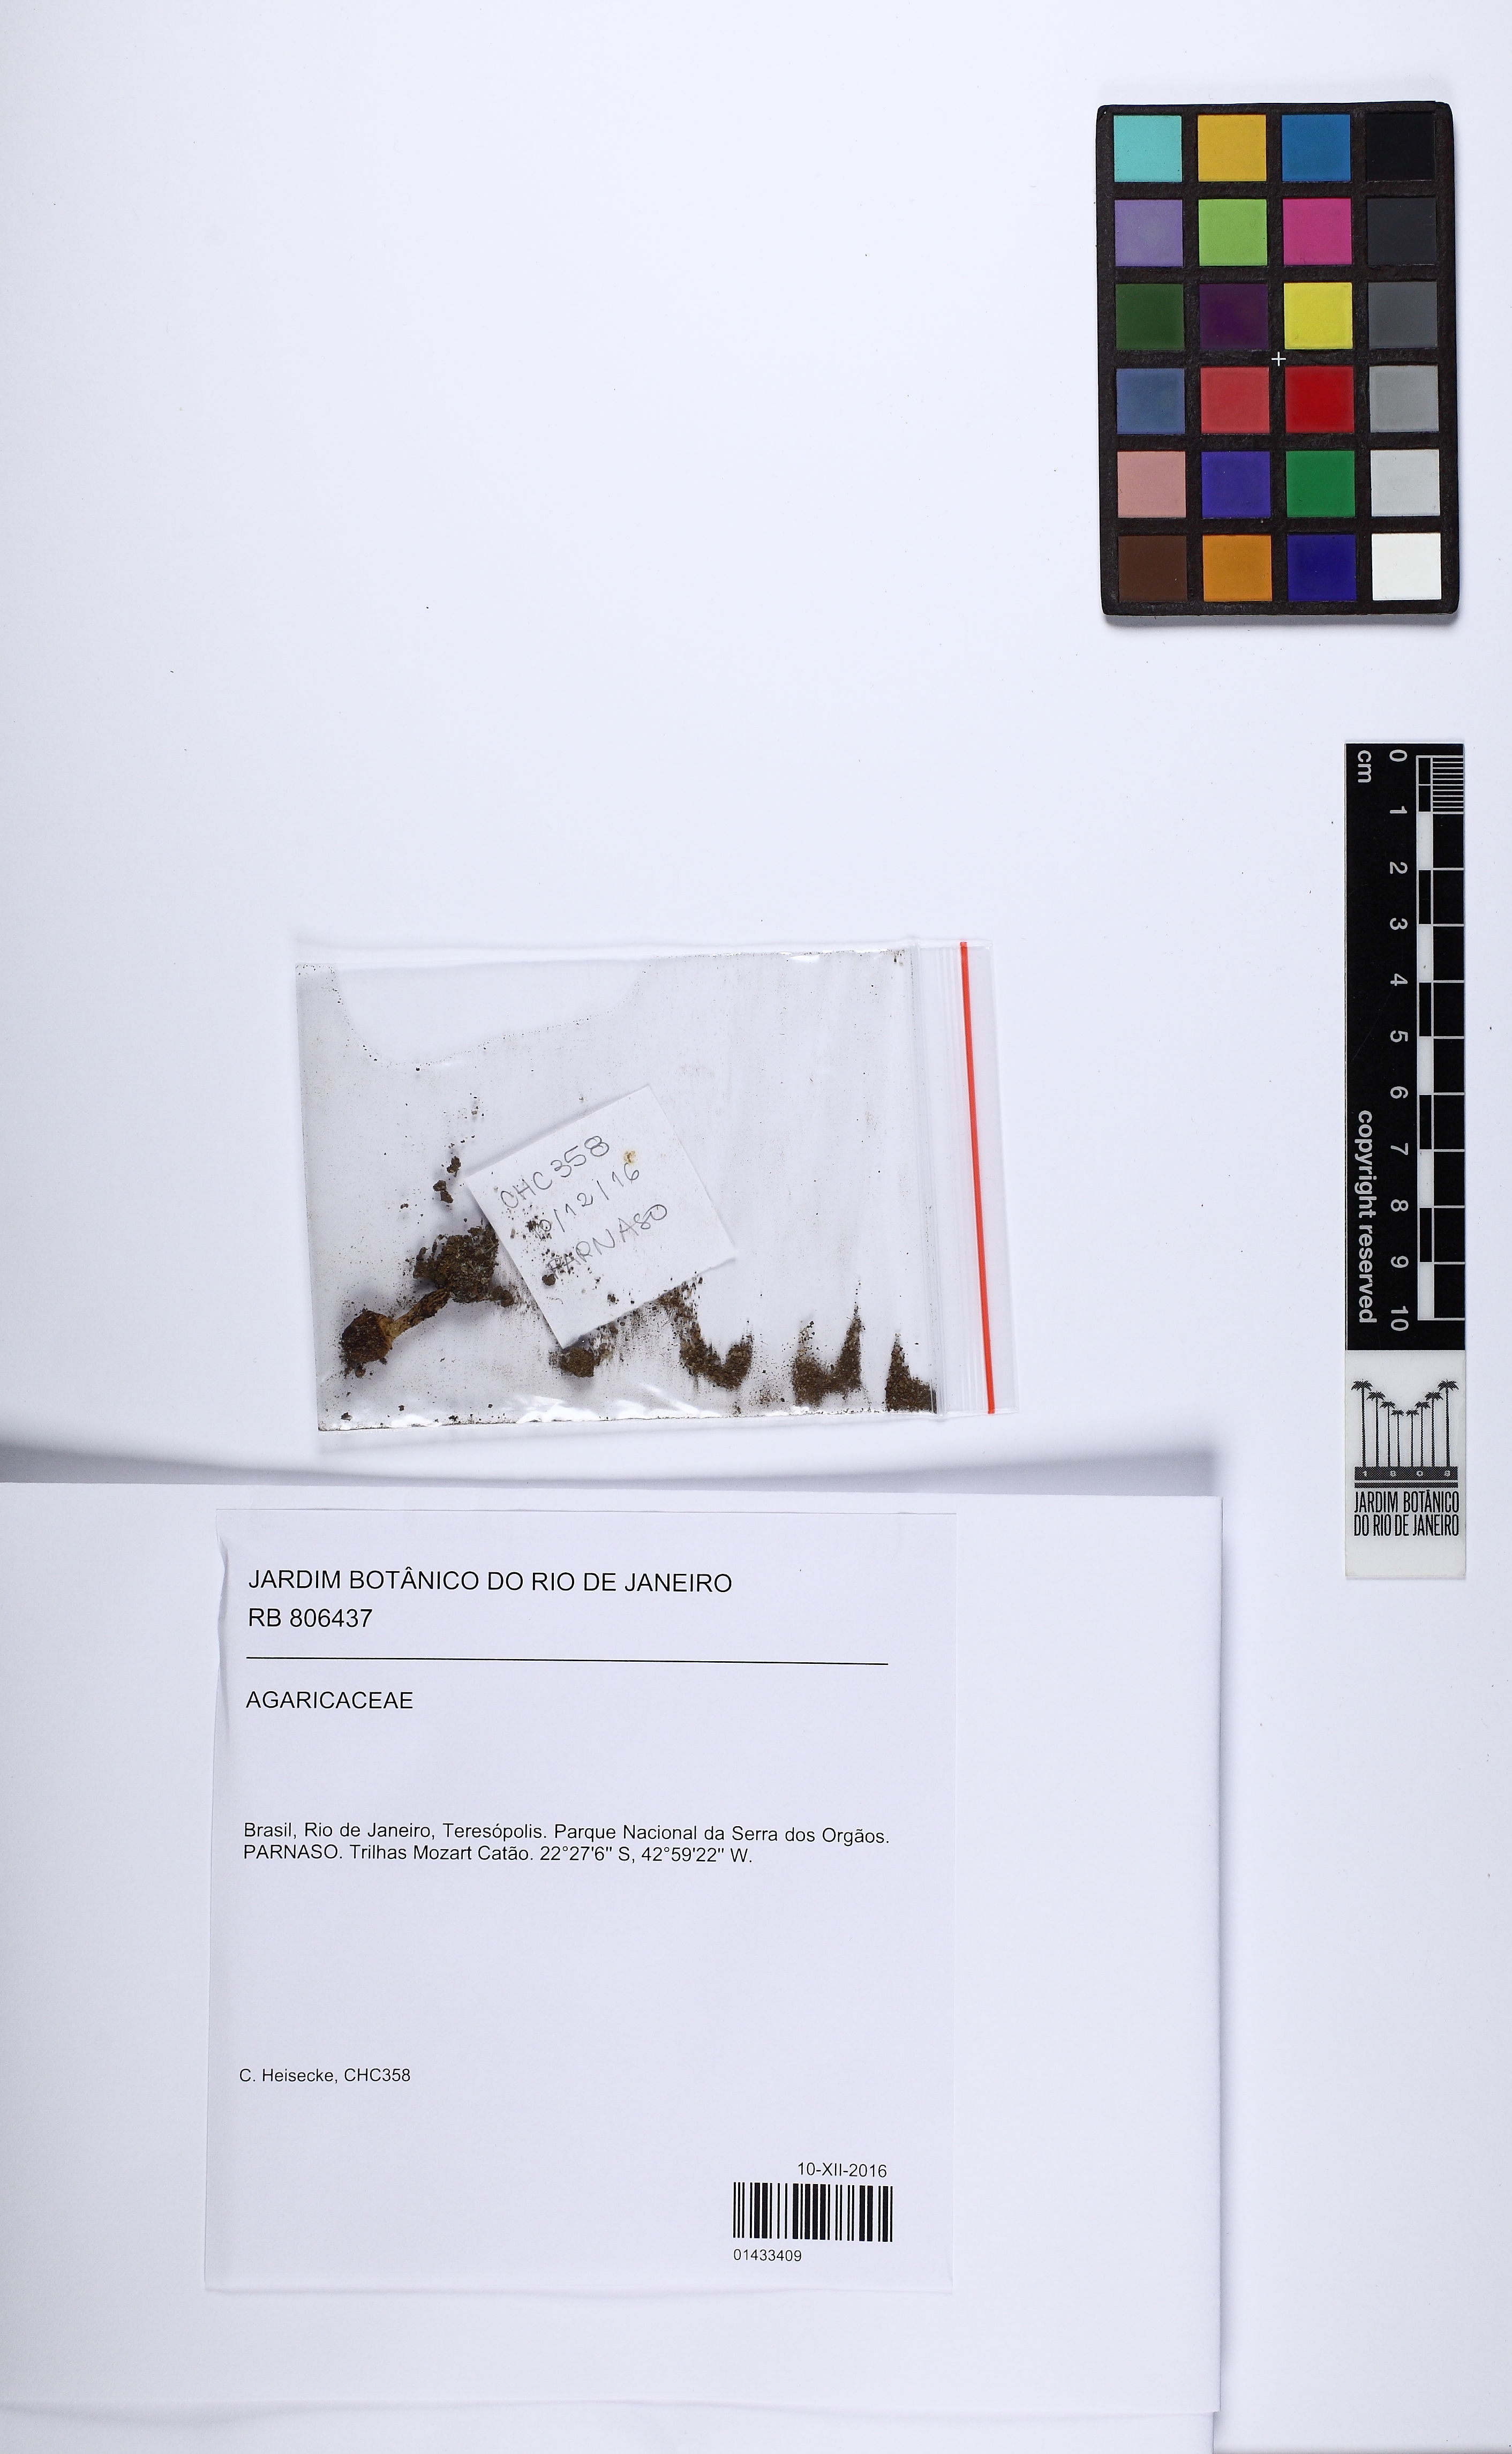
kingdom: Fungi
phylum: Basidiomycota
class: Agaricomycetes
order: Agaricales
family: Agaricaceae
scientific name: Agaricaceae
